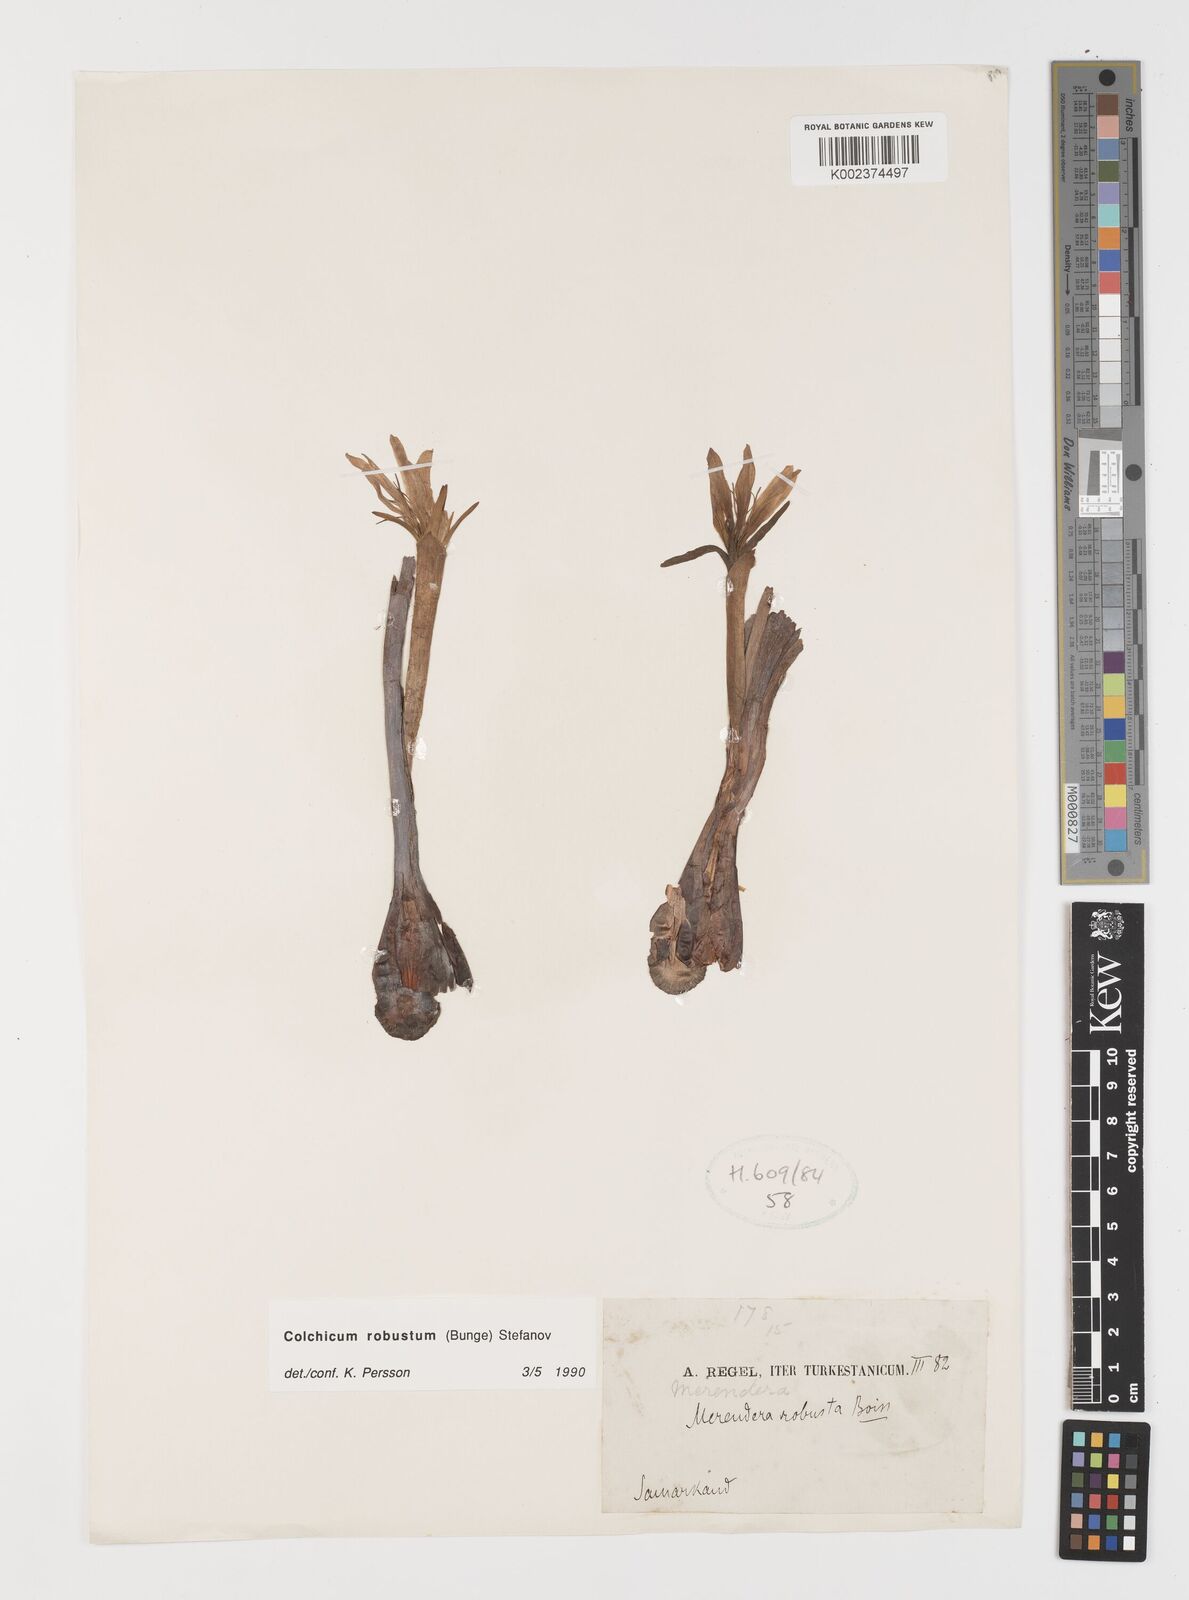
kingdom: Plantae
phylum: Tracheophyta
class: Liliopsida
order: Liliales
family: Colchicaceae
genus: Colchicum
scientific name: Colchicum robustum
